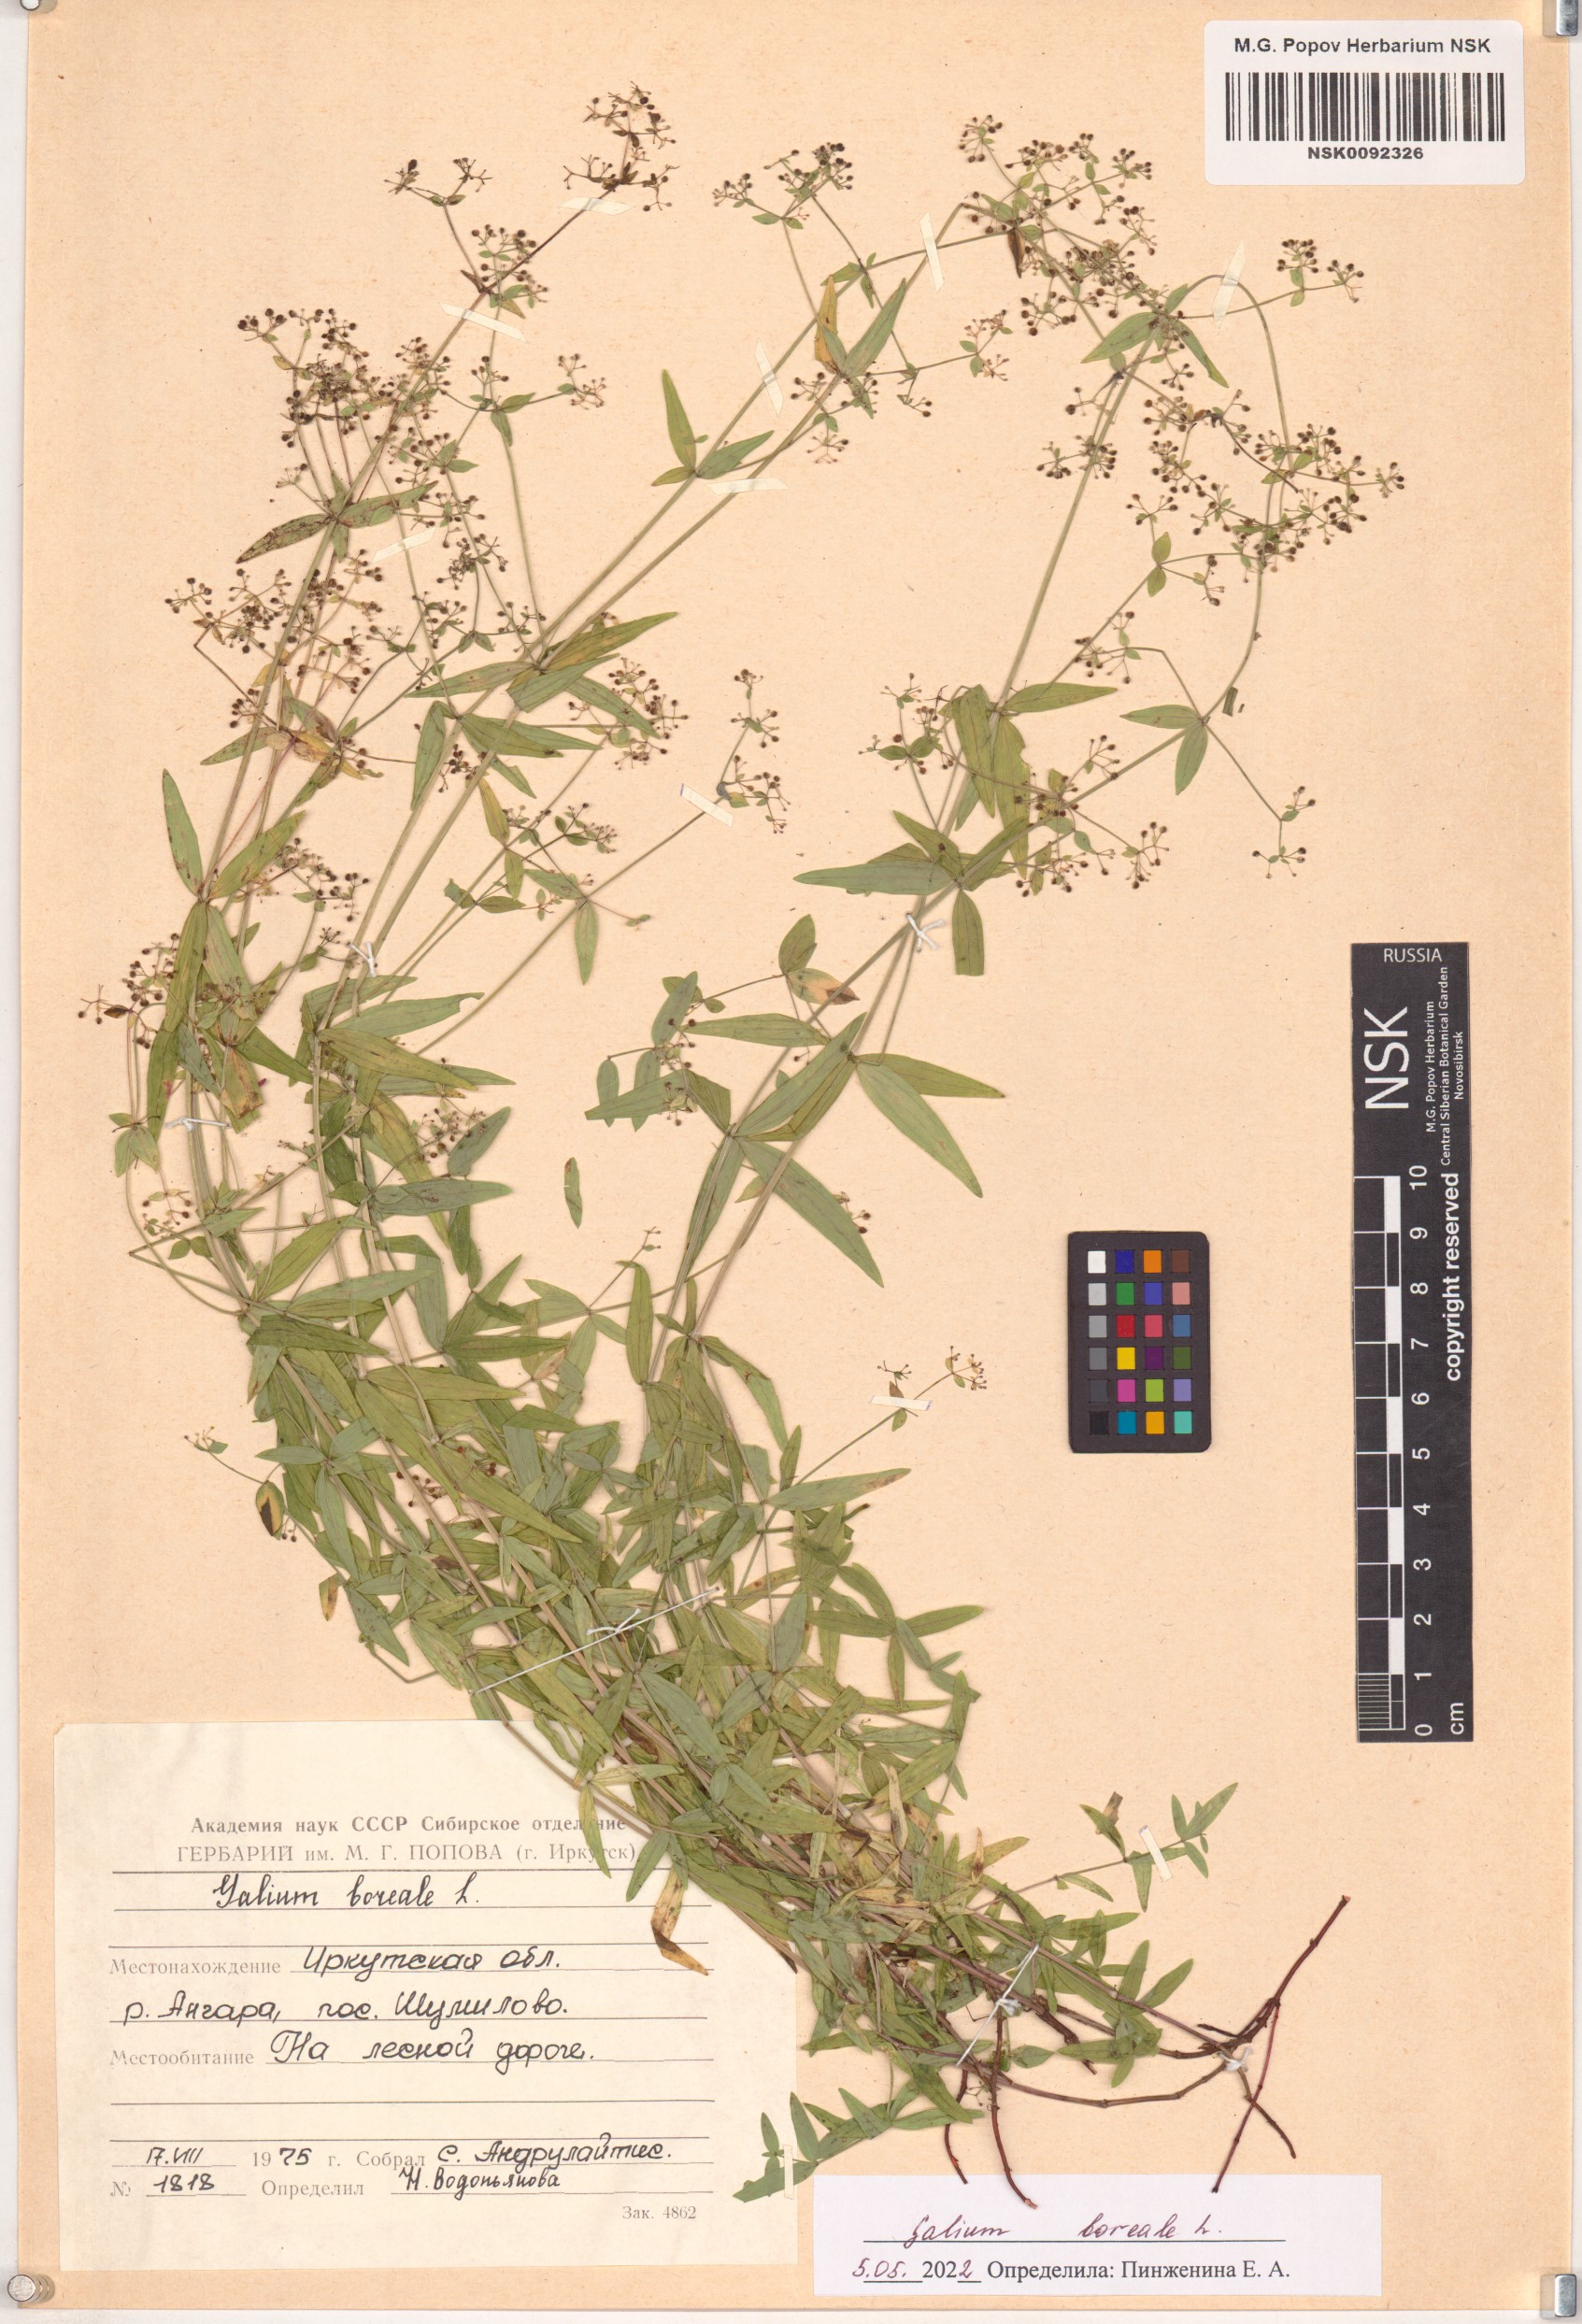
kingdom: Plantae
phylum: Tracheophyta
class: Magnoliopsida
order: Gentianales
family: Rubiaceae
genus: Galium
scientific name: Galium boreale
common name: Northern bedstraw
